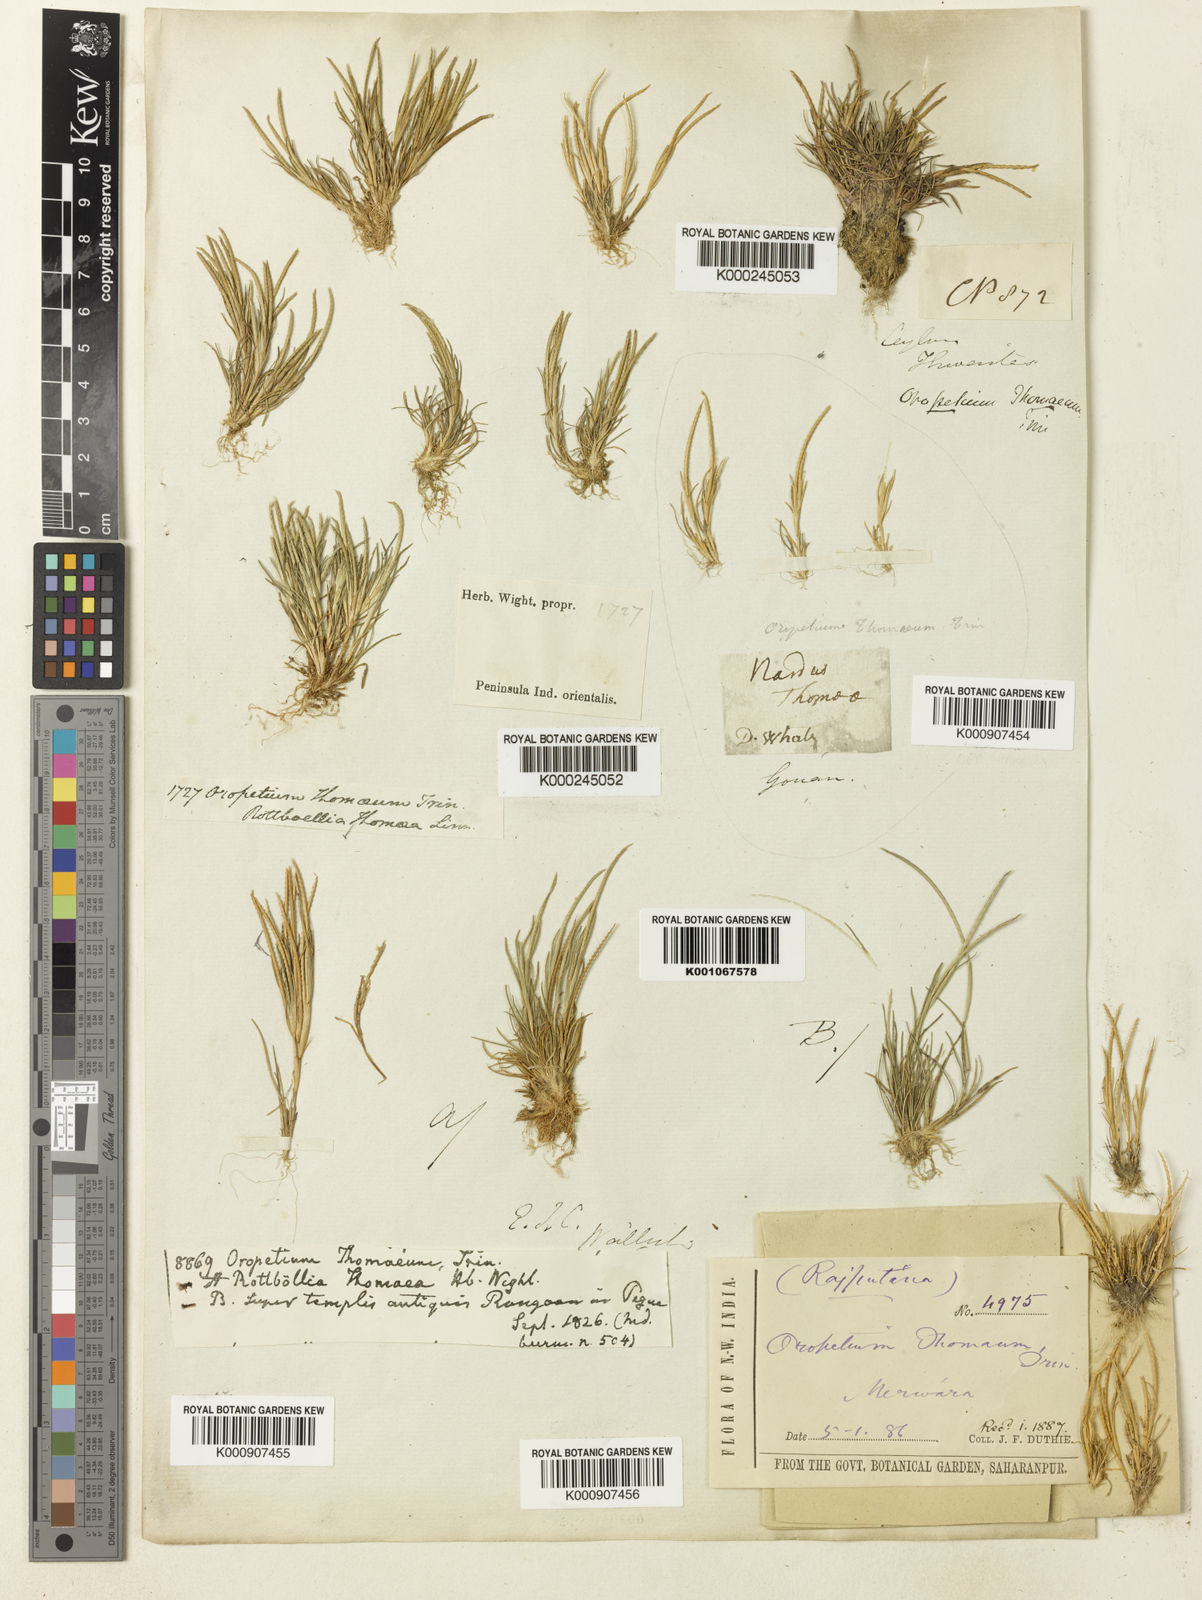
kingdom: Plantae
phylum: Tracheophyta
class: Liliopsida
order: Poales
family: Poaceae
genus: Oropetium
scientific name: Oropetium thomaeum
